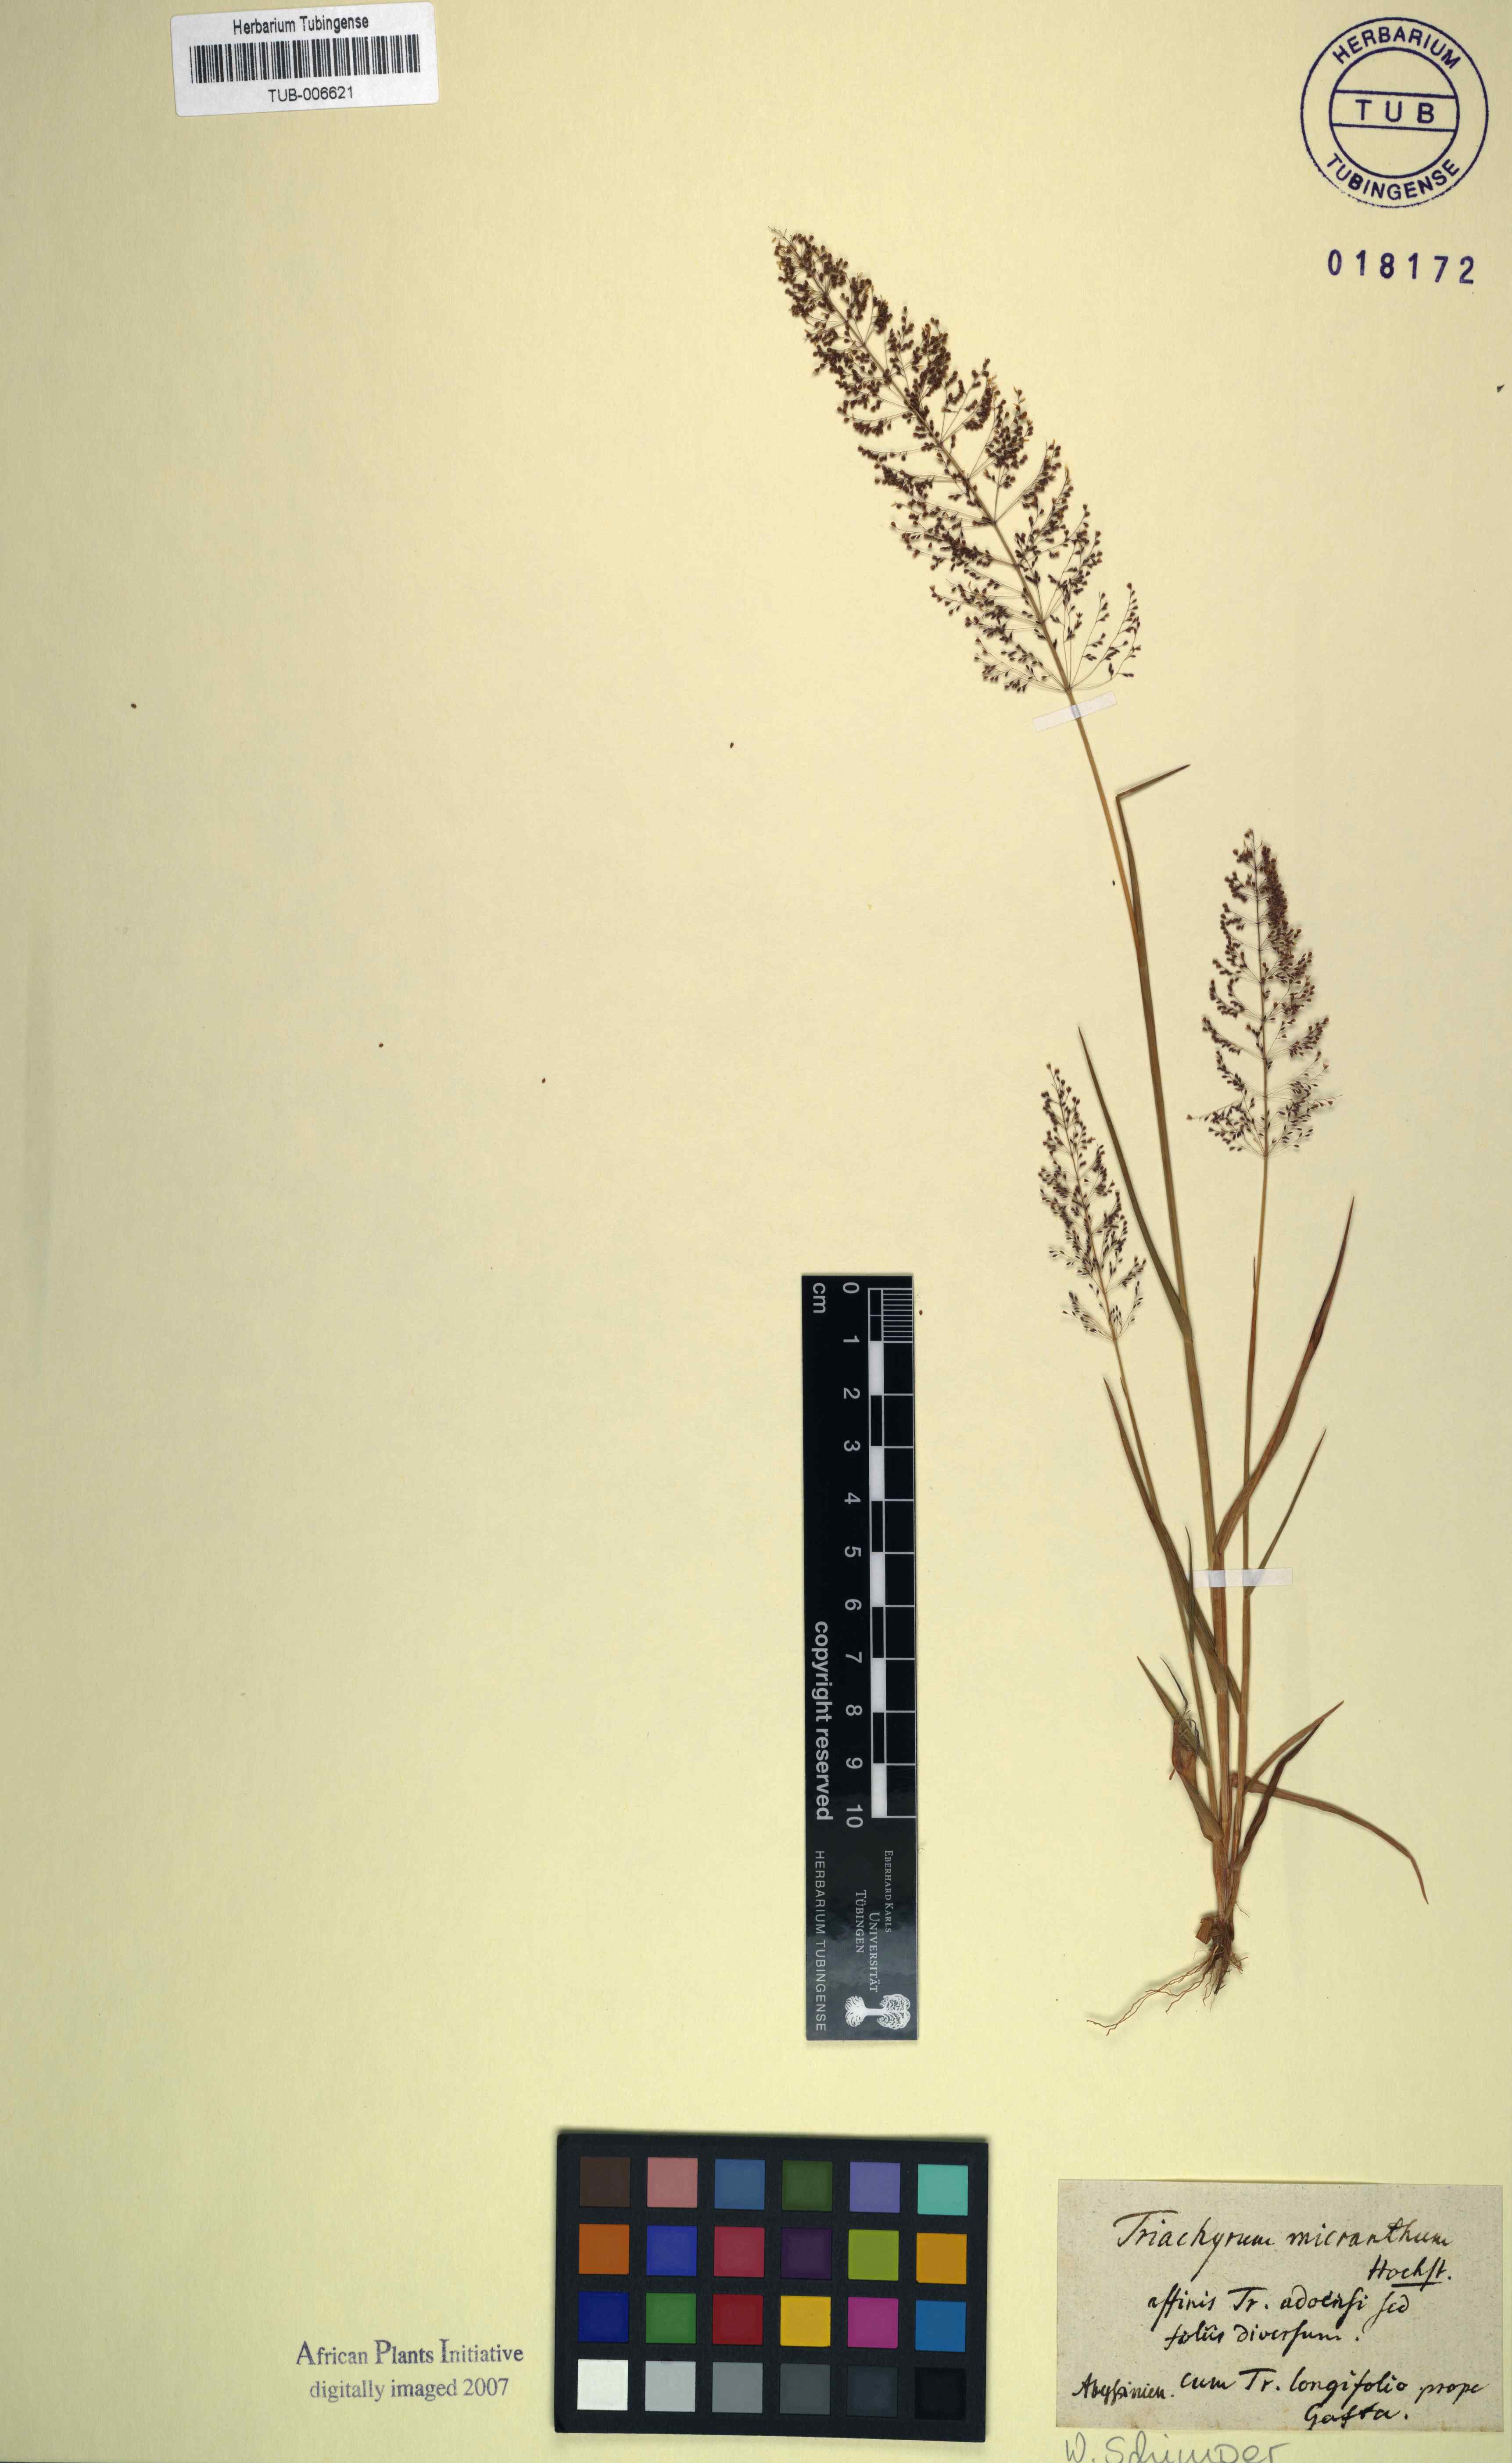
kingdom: Plantae
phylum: Tracheophyta
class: Liliopsida
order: Poales
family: Poaceae
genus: Sporobolus
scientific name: Sporobolus pilifer
